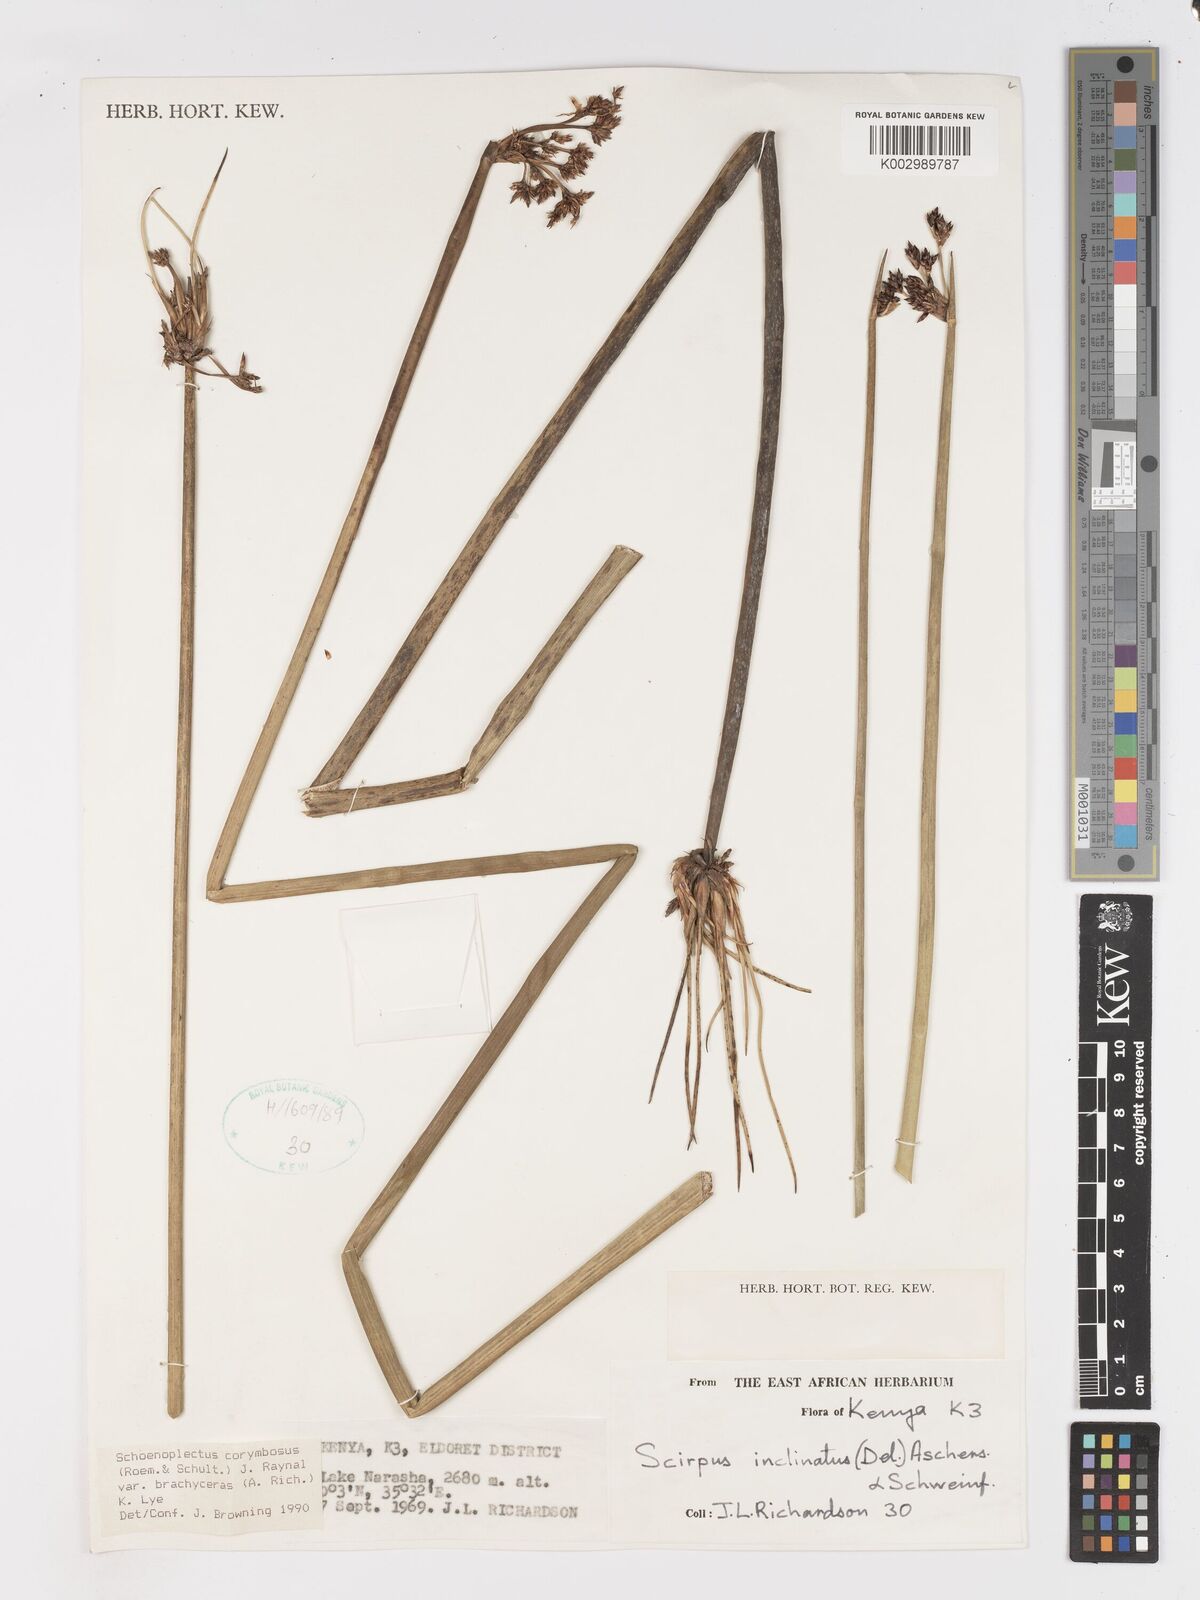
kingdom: Plantae
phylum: Tracheophyta
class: Liliopsida
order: Poales
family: Cyperaceae
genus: Schoenoplectiella
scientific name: Schoenoplectiella brachyceras
